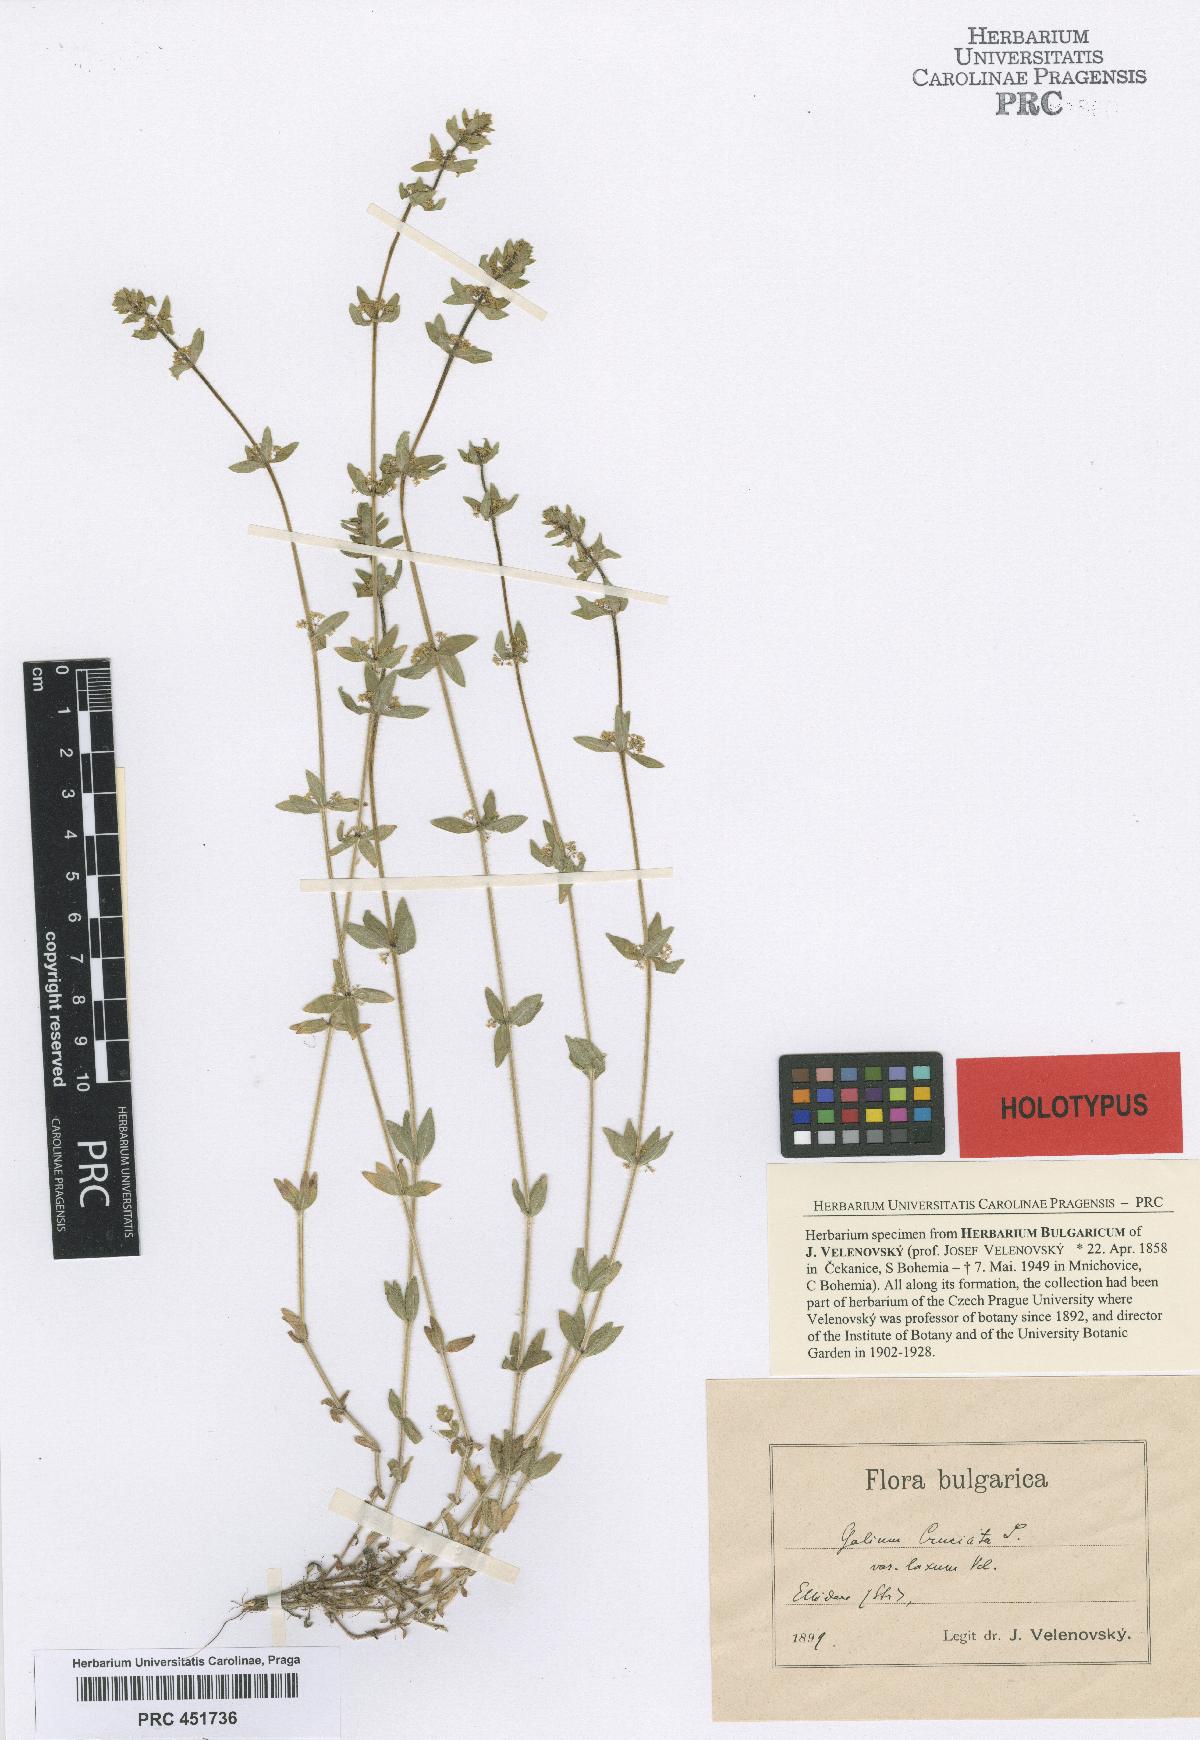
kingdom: Plantae
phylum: Tracheophyta
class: Magnoliopsida
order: Gentianales
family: Rubiaceae
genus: Cruciata
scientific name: Cruciata laevipes
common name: Crosswort
